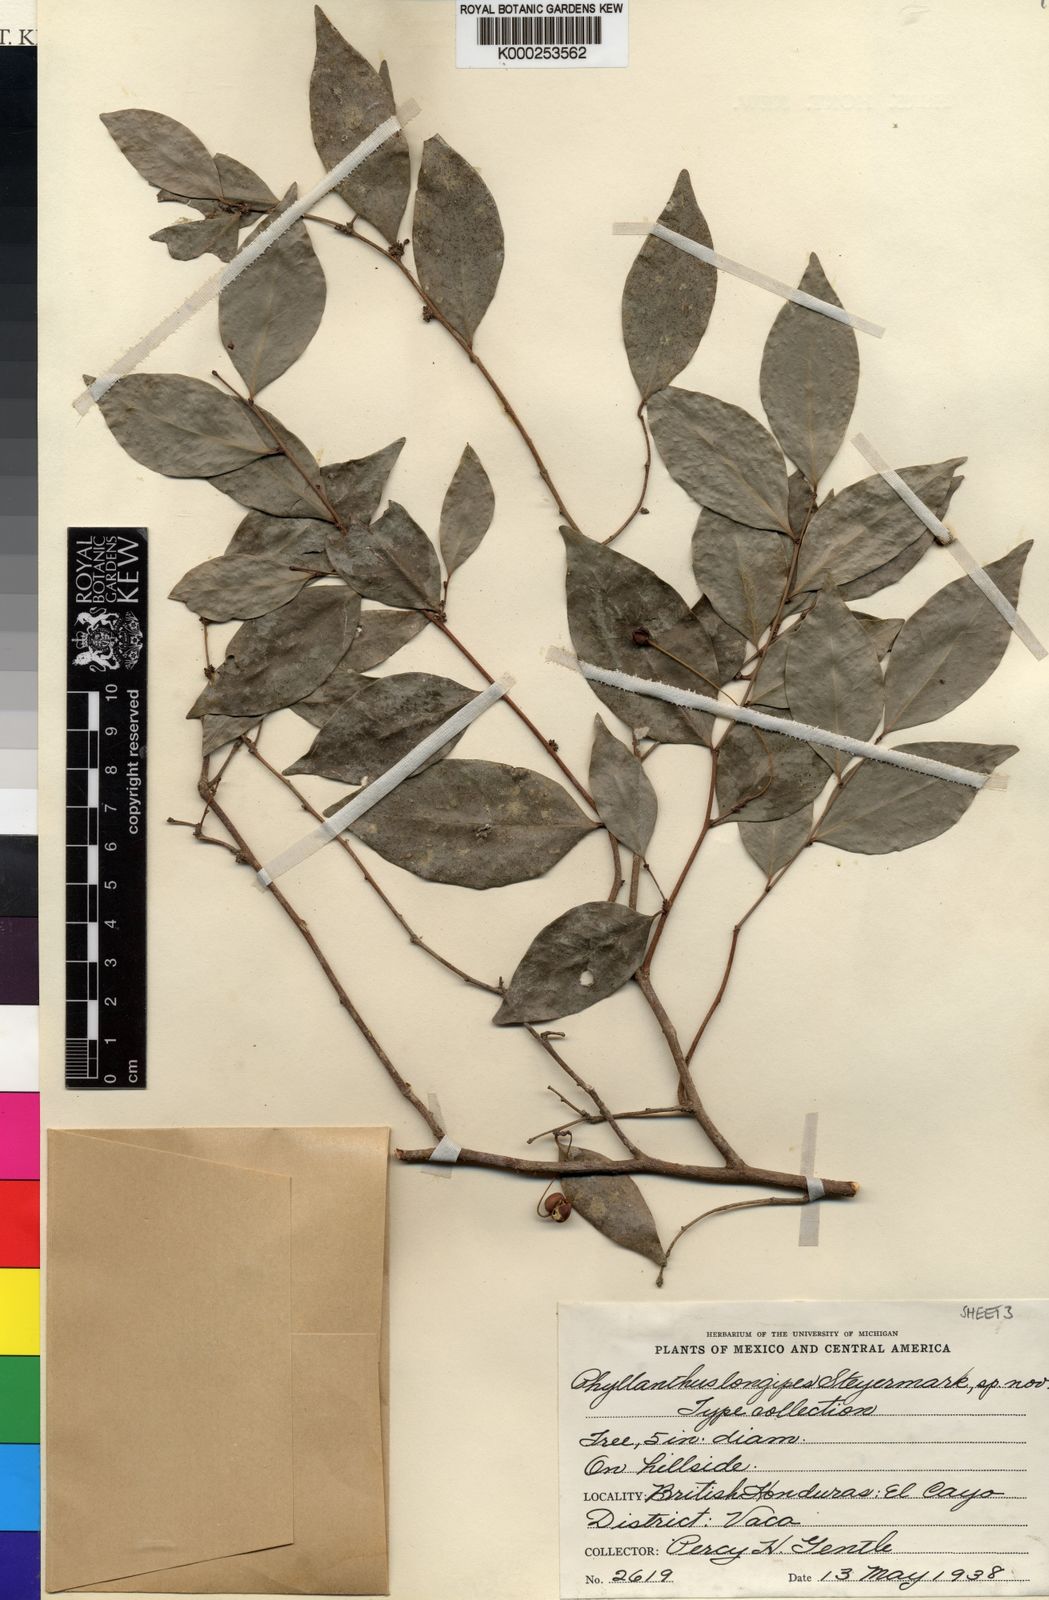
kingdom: Plantae
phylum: Tracheophyta
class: Magnoliopsida
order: Malpighiales
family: Euphorbiaceae
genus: Gymnanthes
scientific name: Gymnanthes belizensis
